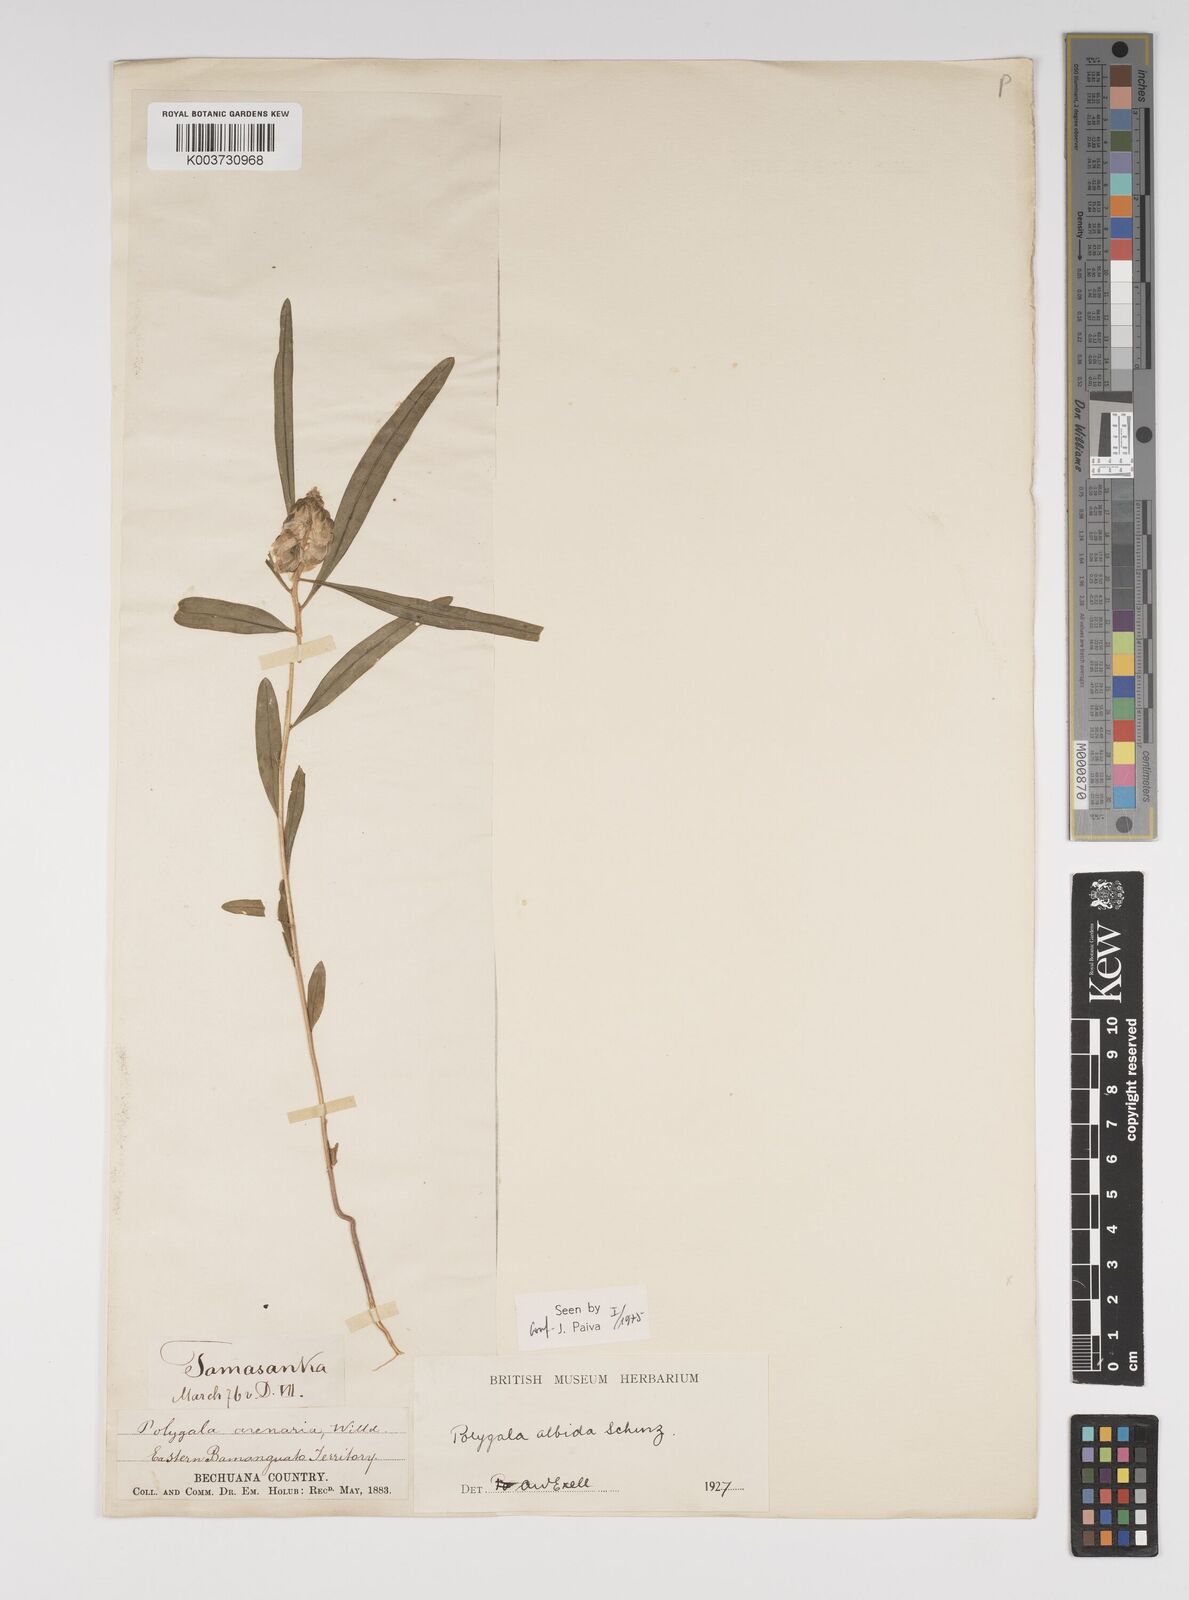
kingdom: Plantae
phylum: Tracheophyta
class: Magnoliopsida
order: Fabales
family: Polygalaceae
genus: Polygala
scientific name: Polygala albida
